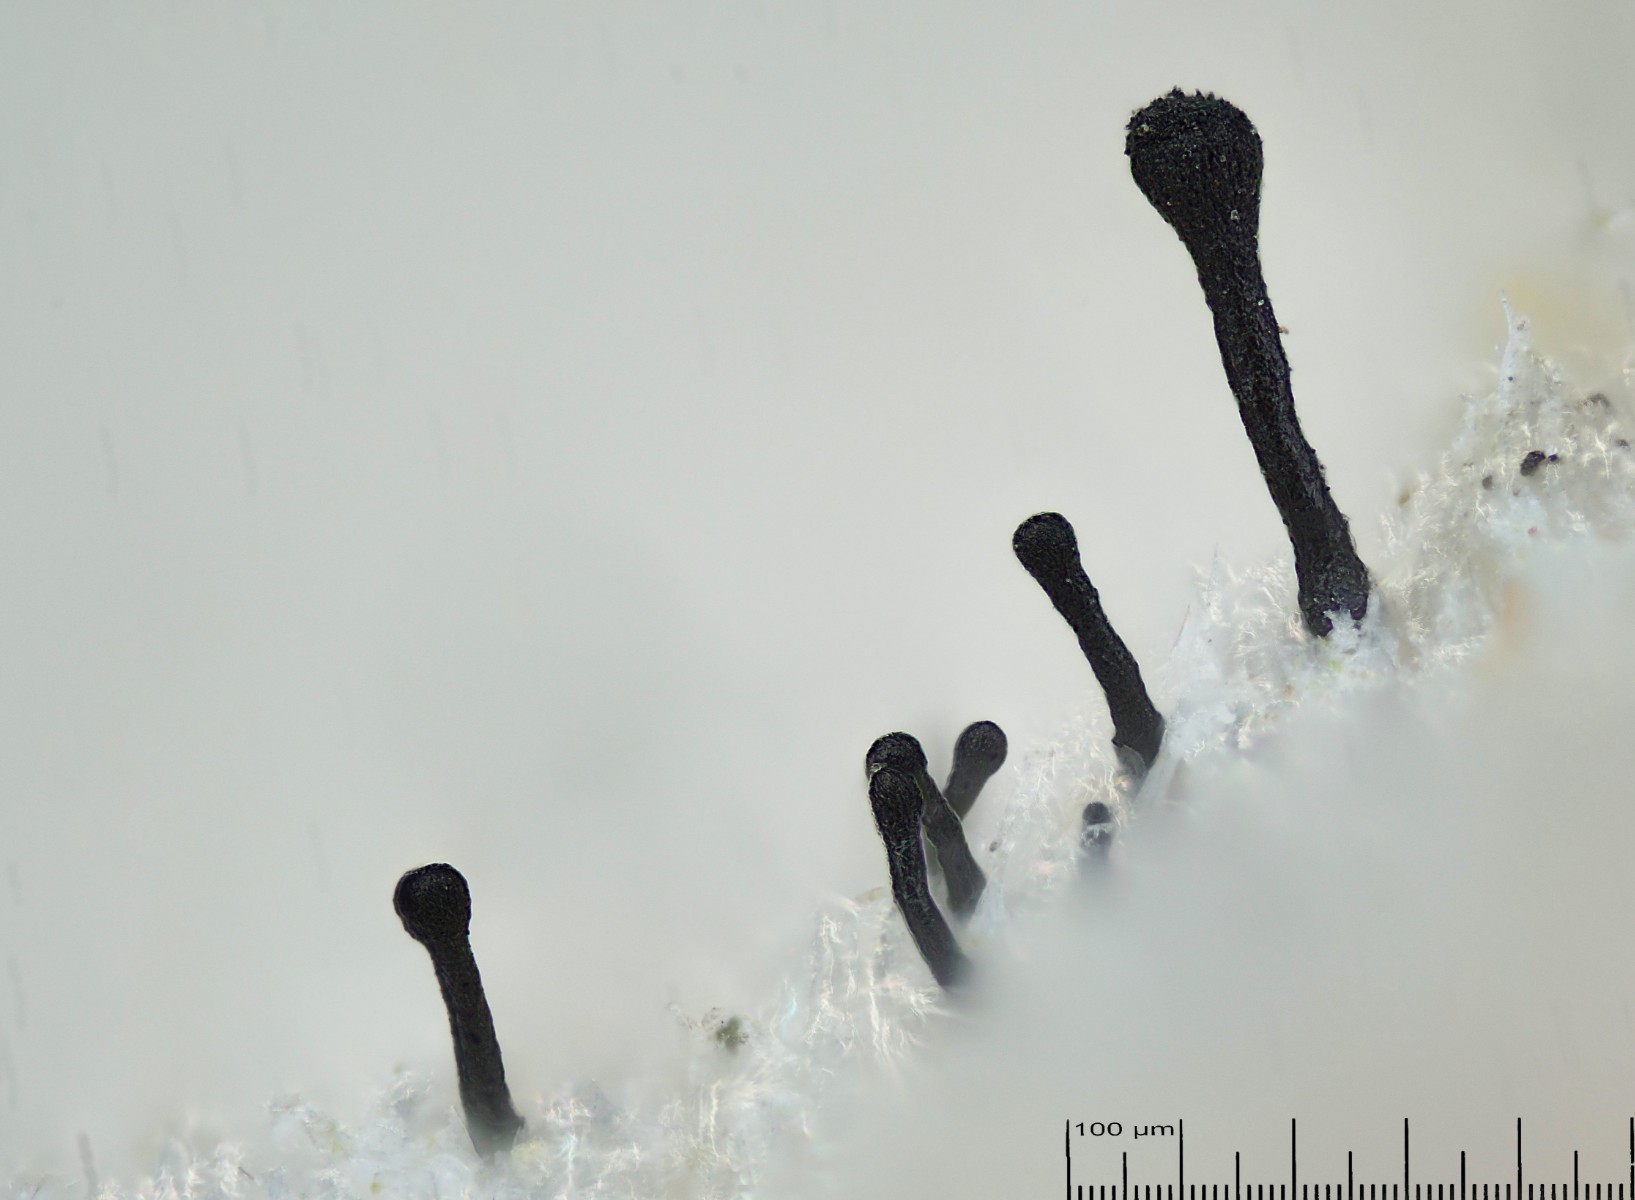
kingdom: Fungi
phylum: Ascomycota
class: Eurotiomycetes
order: Mycocaliciales
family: Mycocaliciaceae
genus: Mycocalicium
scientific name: Mycocalicium subtile
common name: ved-nålesvamp
